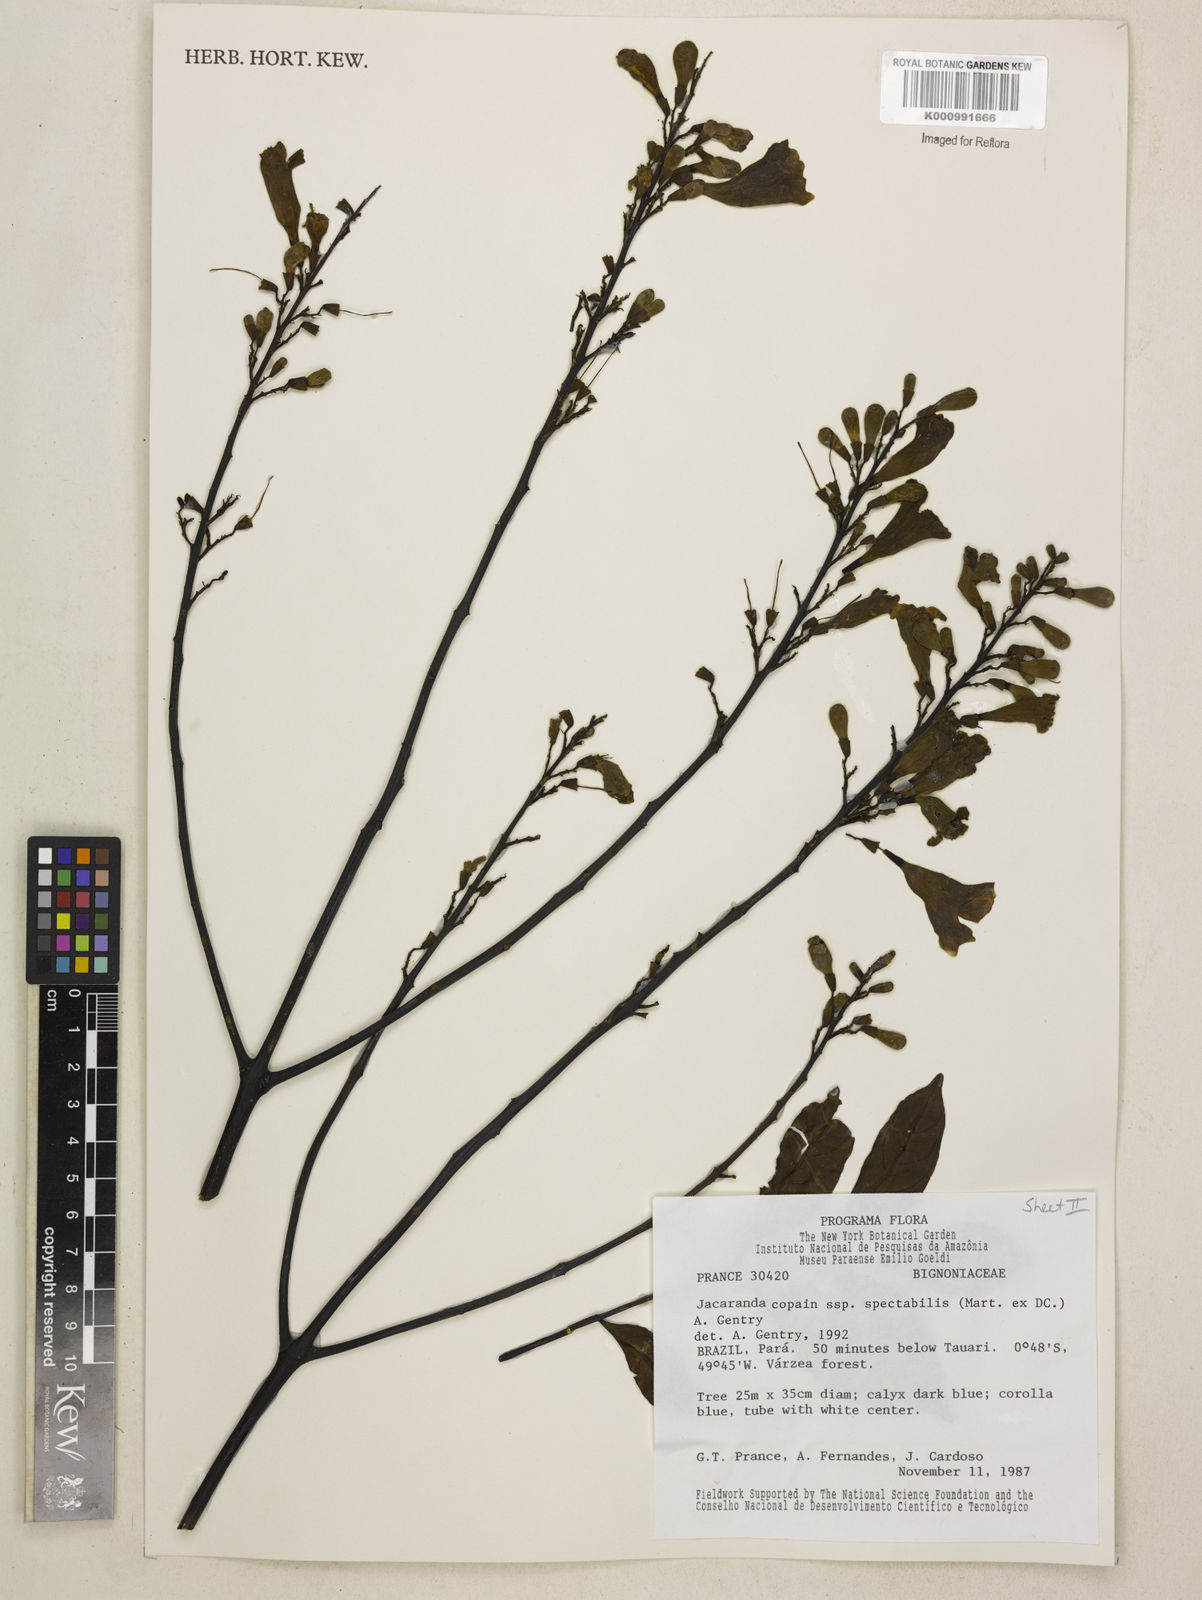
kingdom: Plantae
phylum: Tracheophyta
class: Magnoliopsida
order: Lamiales
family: Bignoniaceae
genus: Jacaranda
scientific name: Jacaranda copaia
